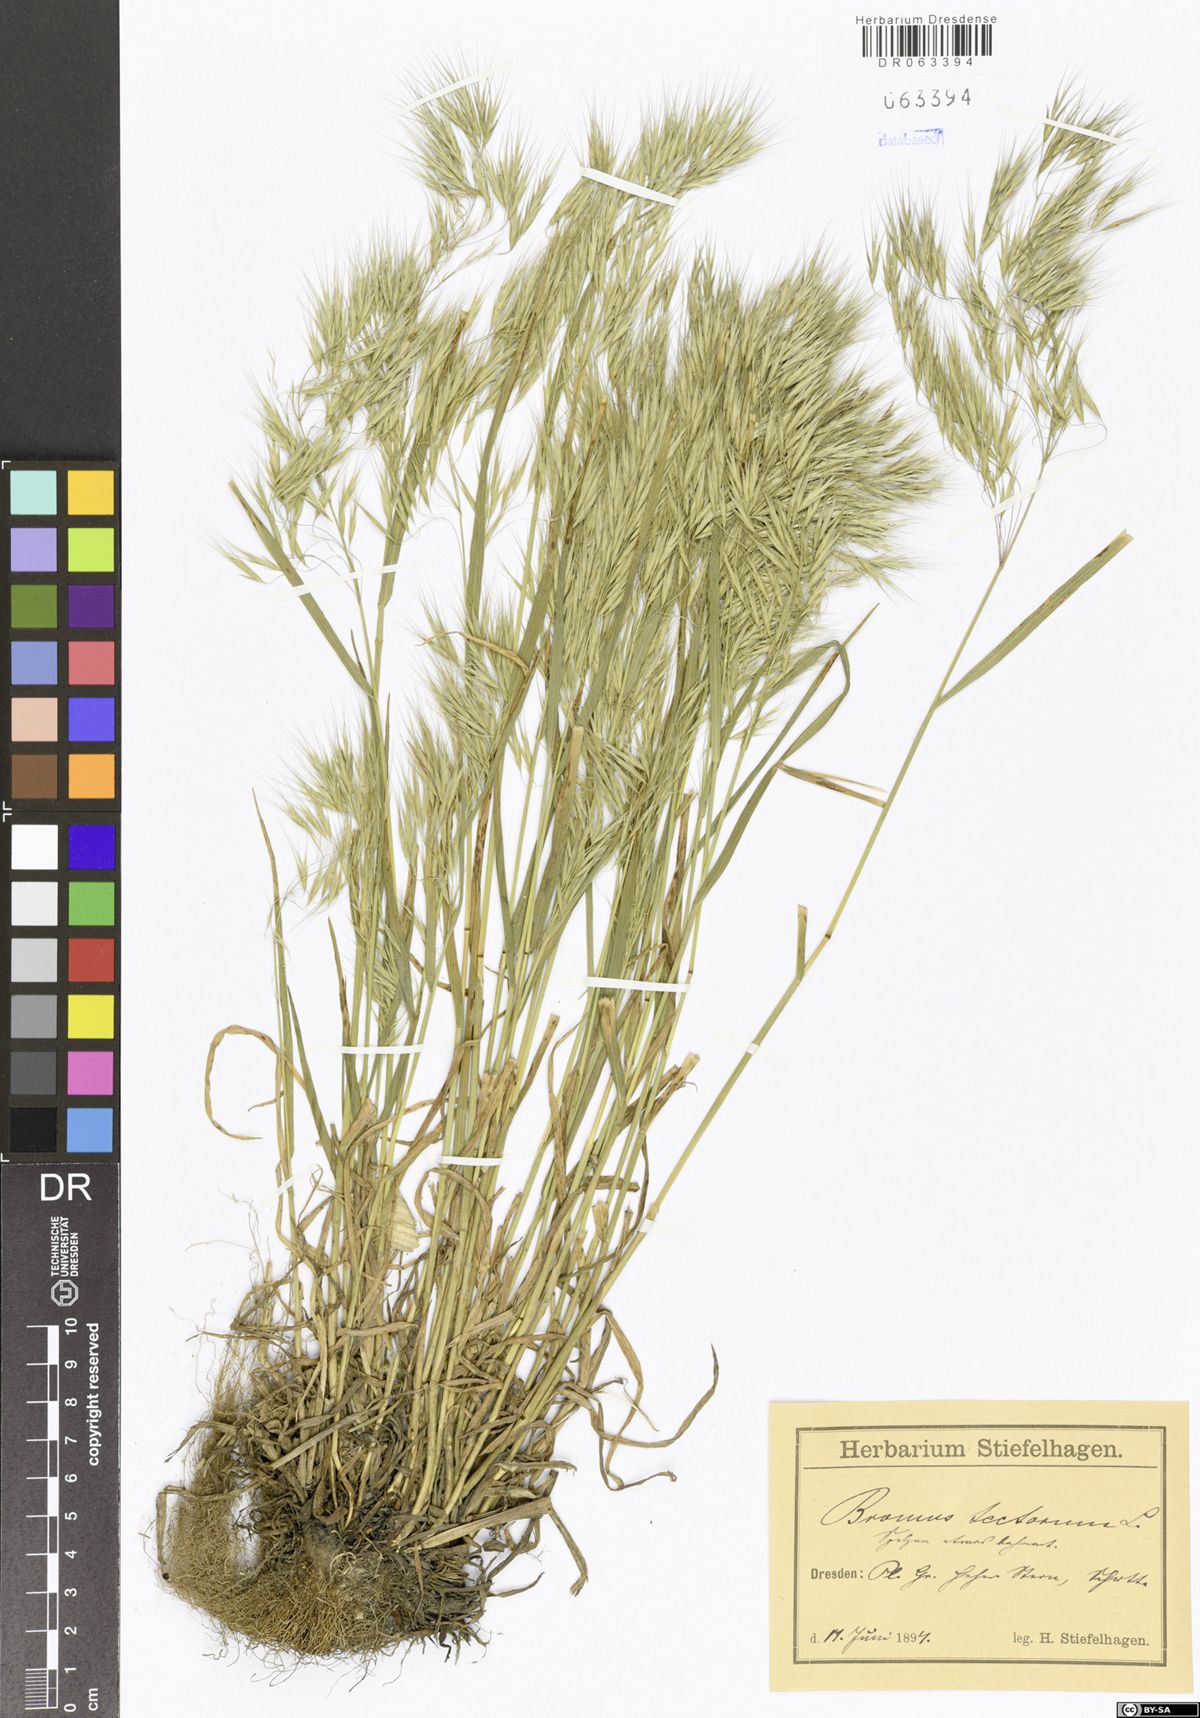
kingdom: Plantae
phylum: Tracheophyta
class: Liliopsida
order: Poales
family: Poaceae
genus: Bromus
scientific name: Bromus tectorum
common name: Cheatgrass
